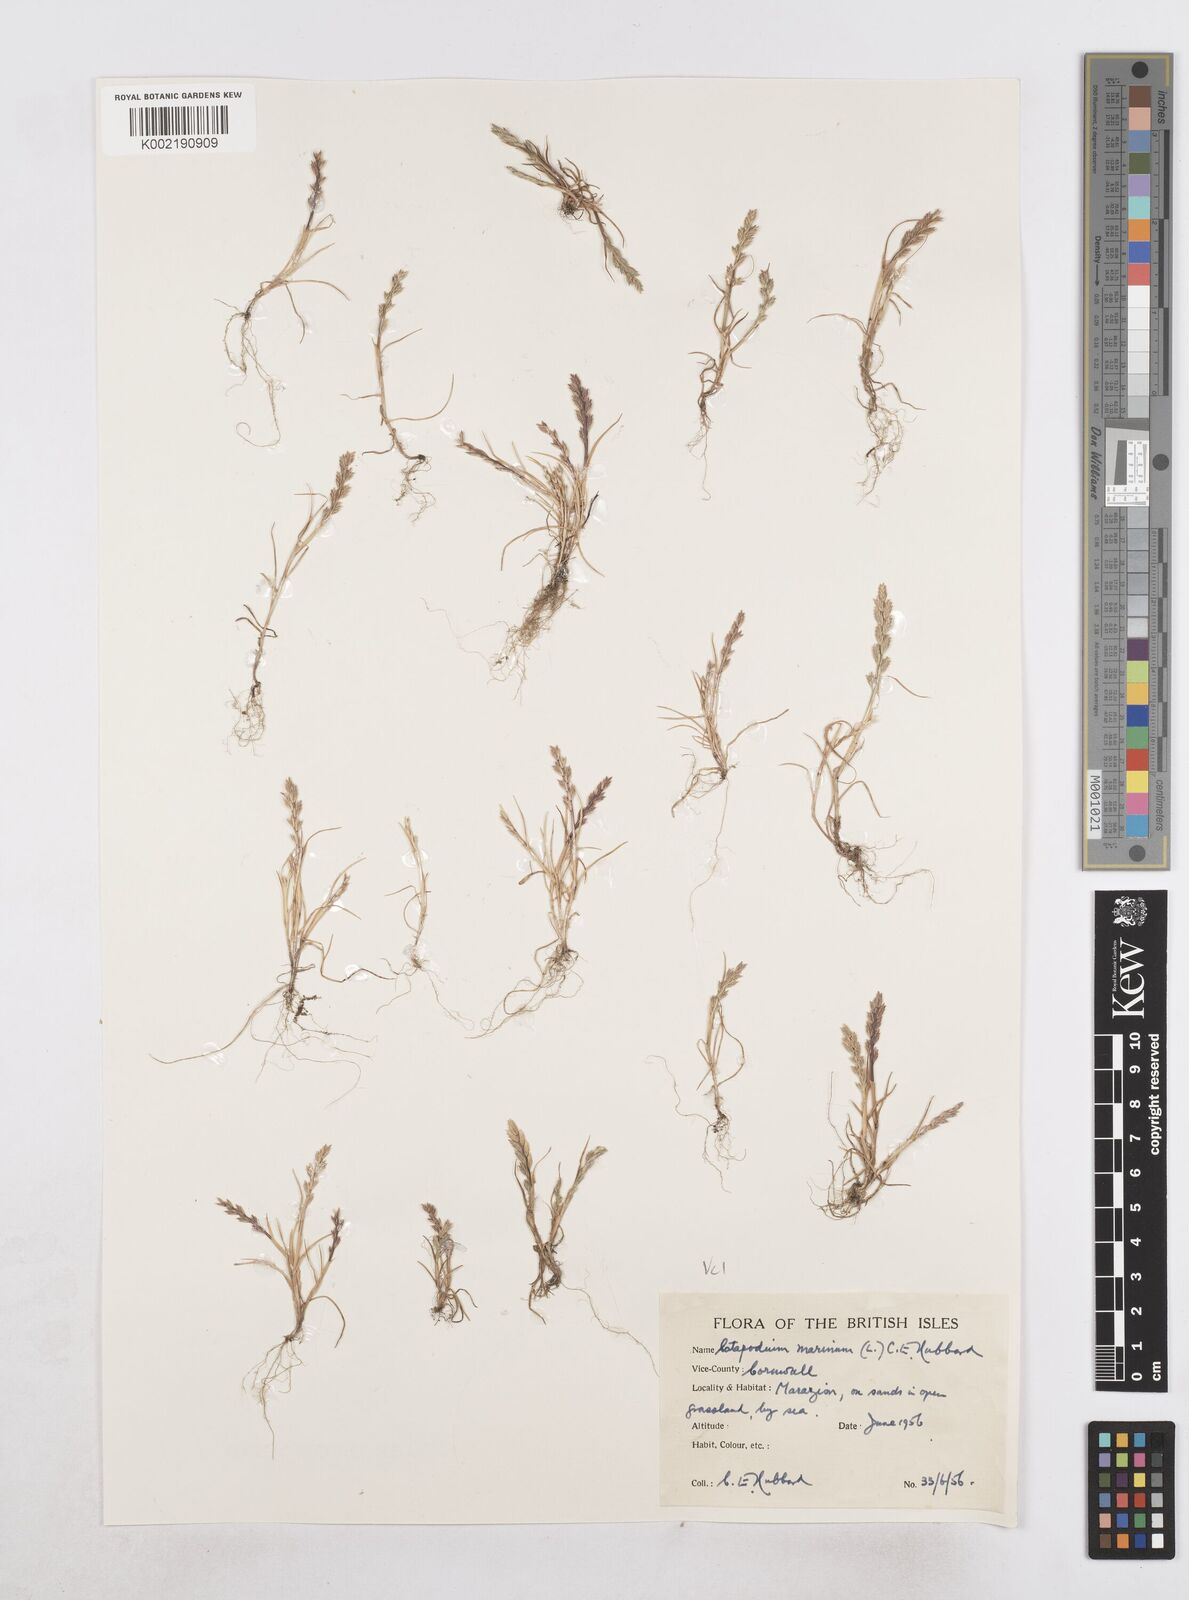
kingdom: Plantae
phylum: Tracheophyta
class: Liliopsida
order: Poales
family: Poaceae
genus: Catapodium
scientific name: Catapodium marinum
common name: Sea fern-grass
